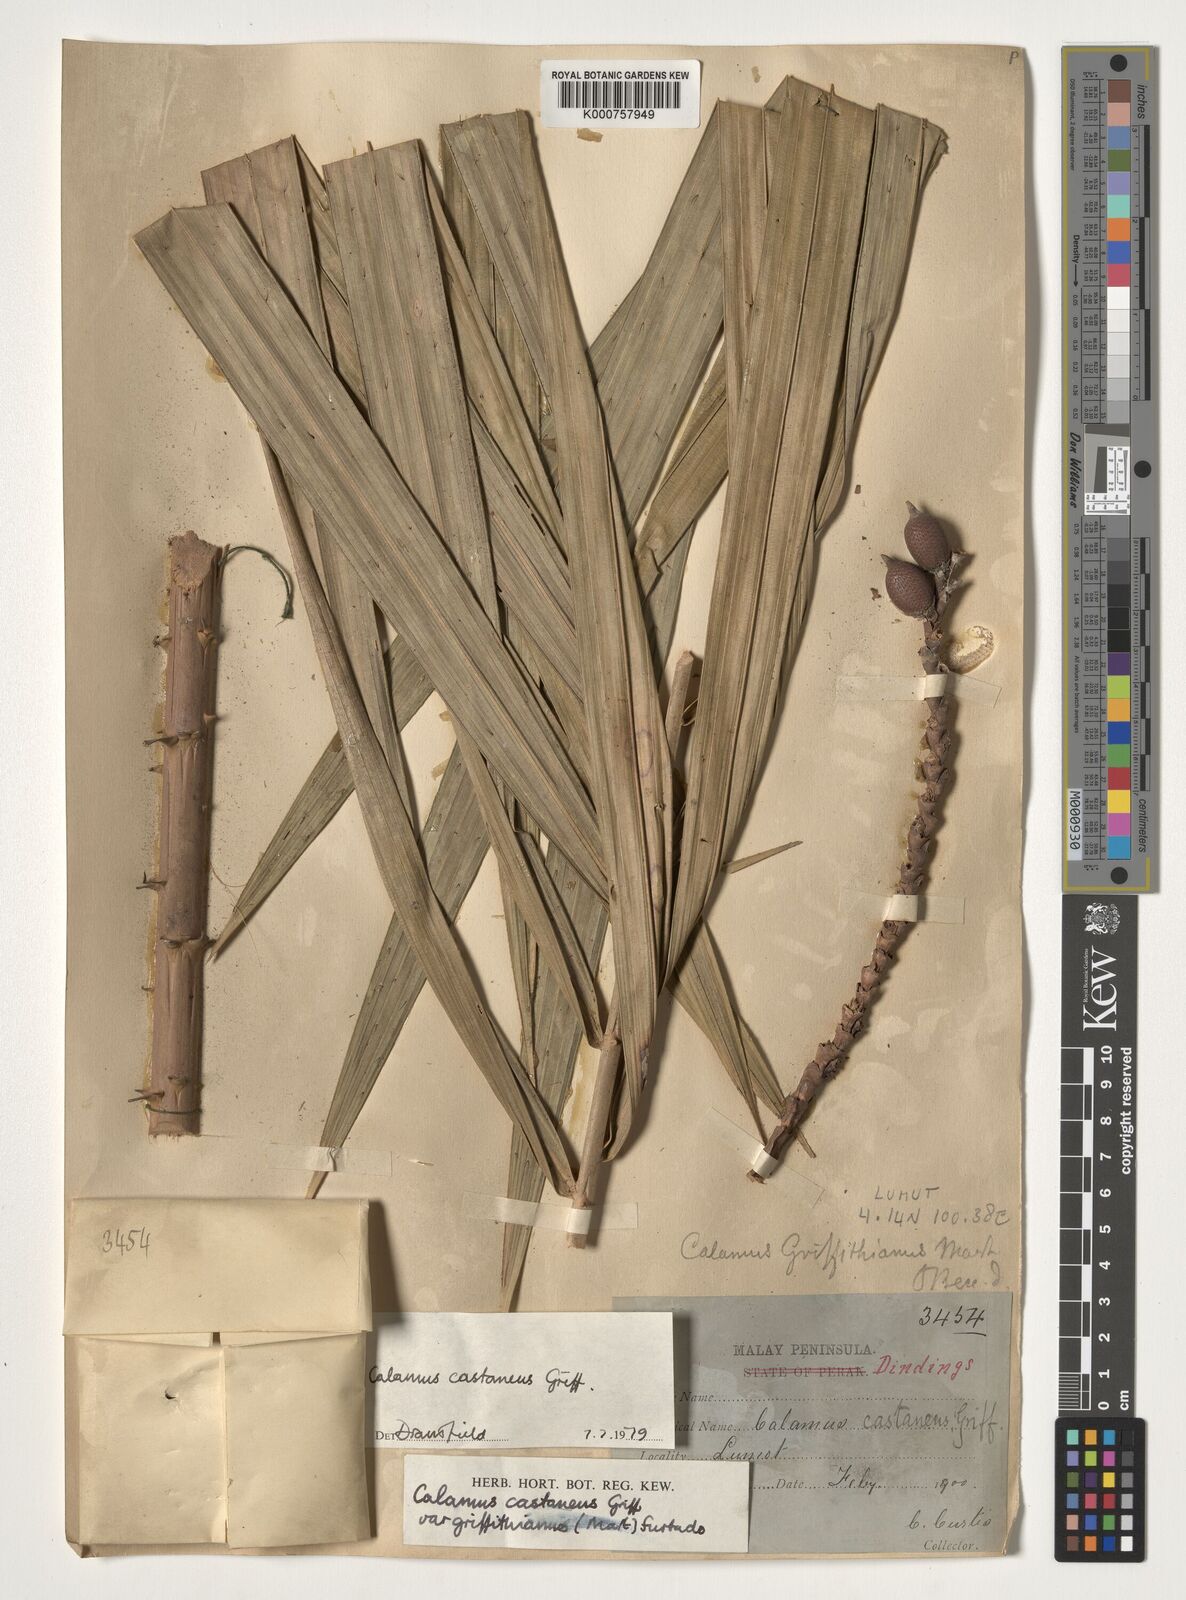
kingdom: Plantae
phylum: Tracheophyta
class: Liliopsida
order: Arecales
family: Arecaceae
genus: Calamus
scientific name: Calamus castaneus
